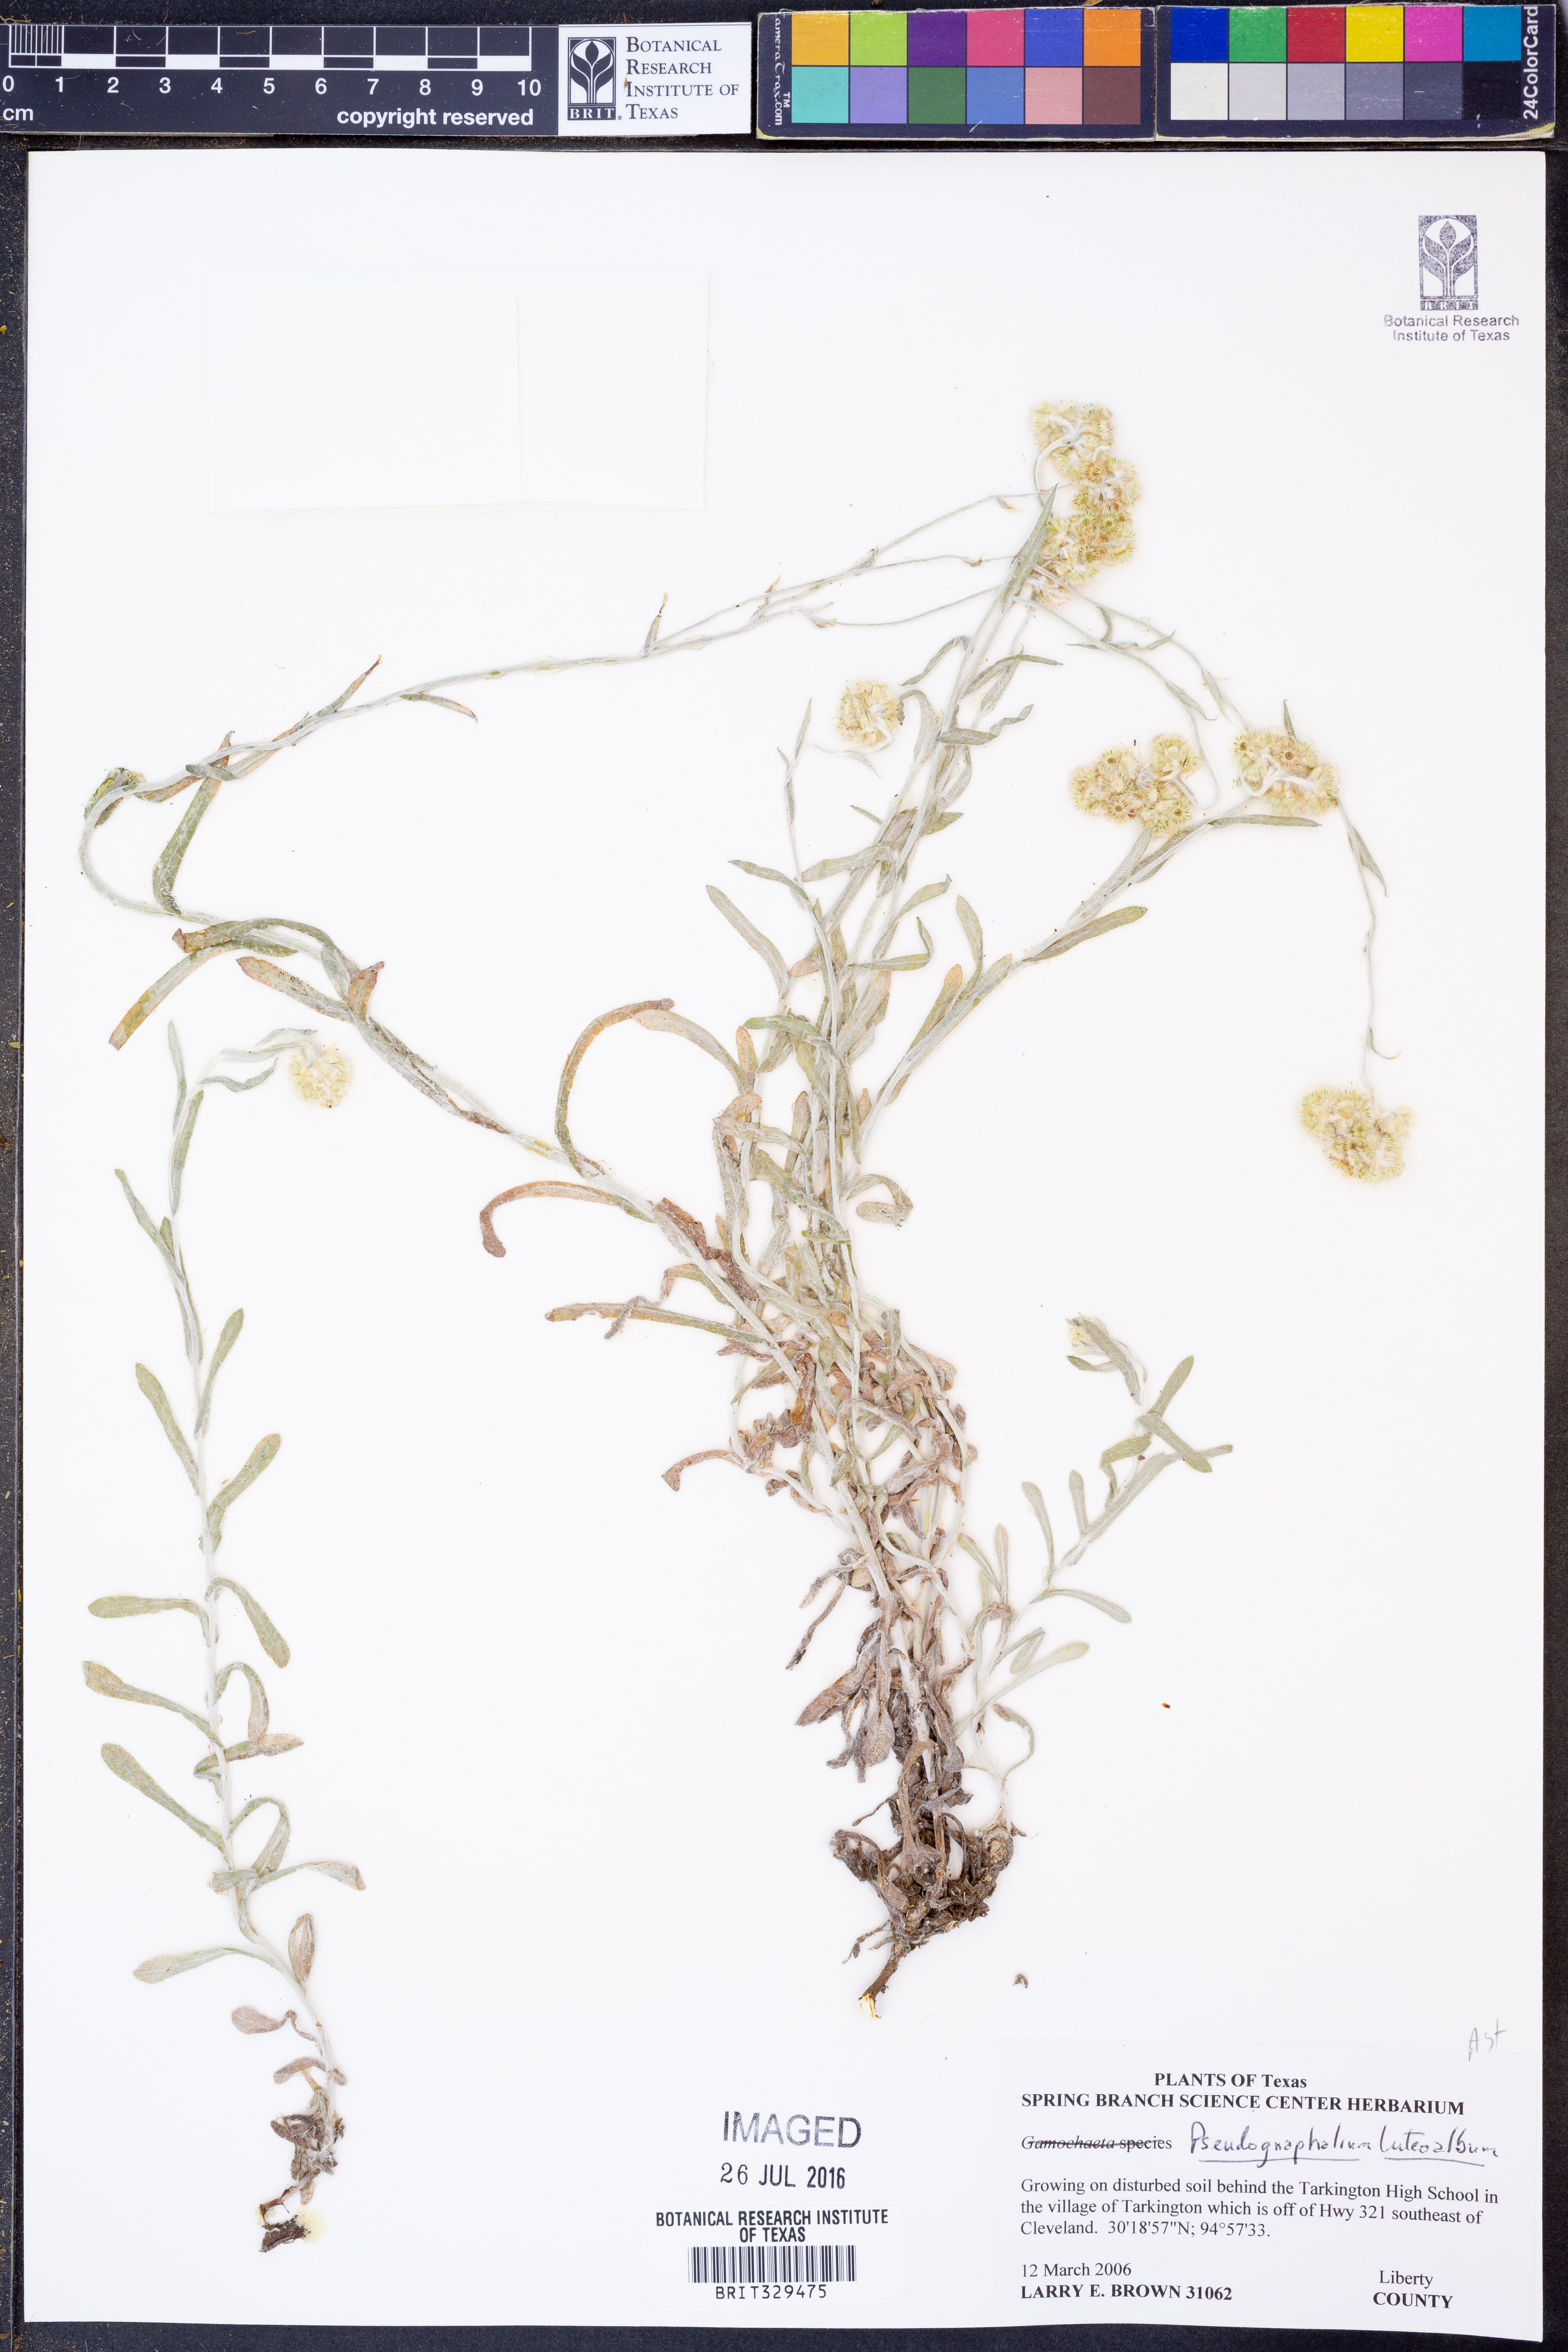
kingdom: Plantae
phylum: Tracheophyta
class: Magnoliopsida
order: Asterales
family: Asteraceae
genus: Helichrysum
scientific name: Helichrysum luteoalbum
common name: Daisy
